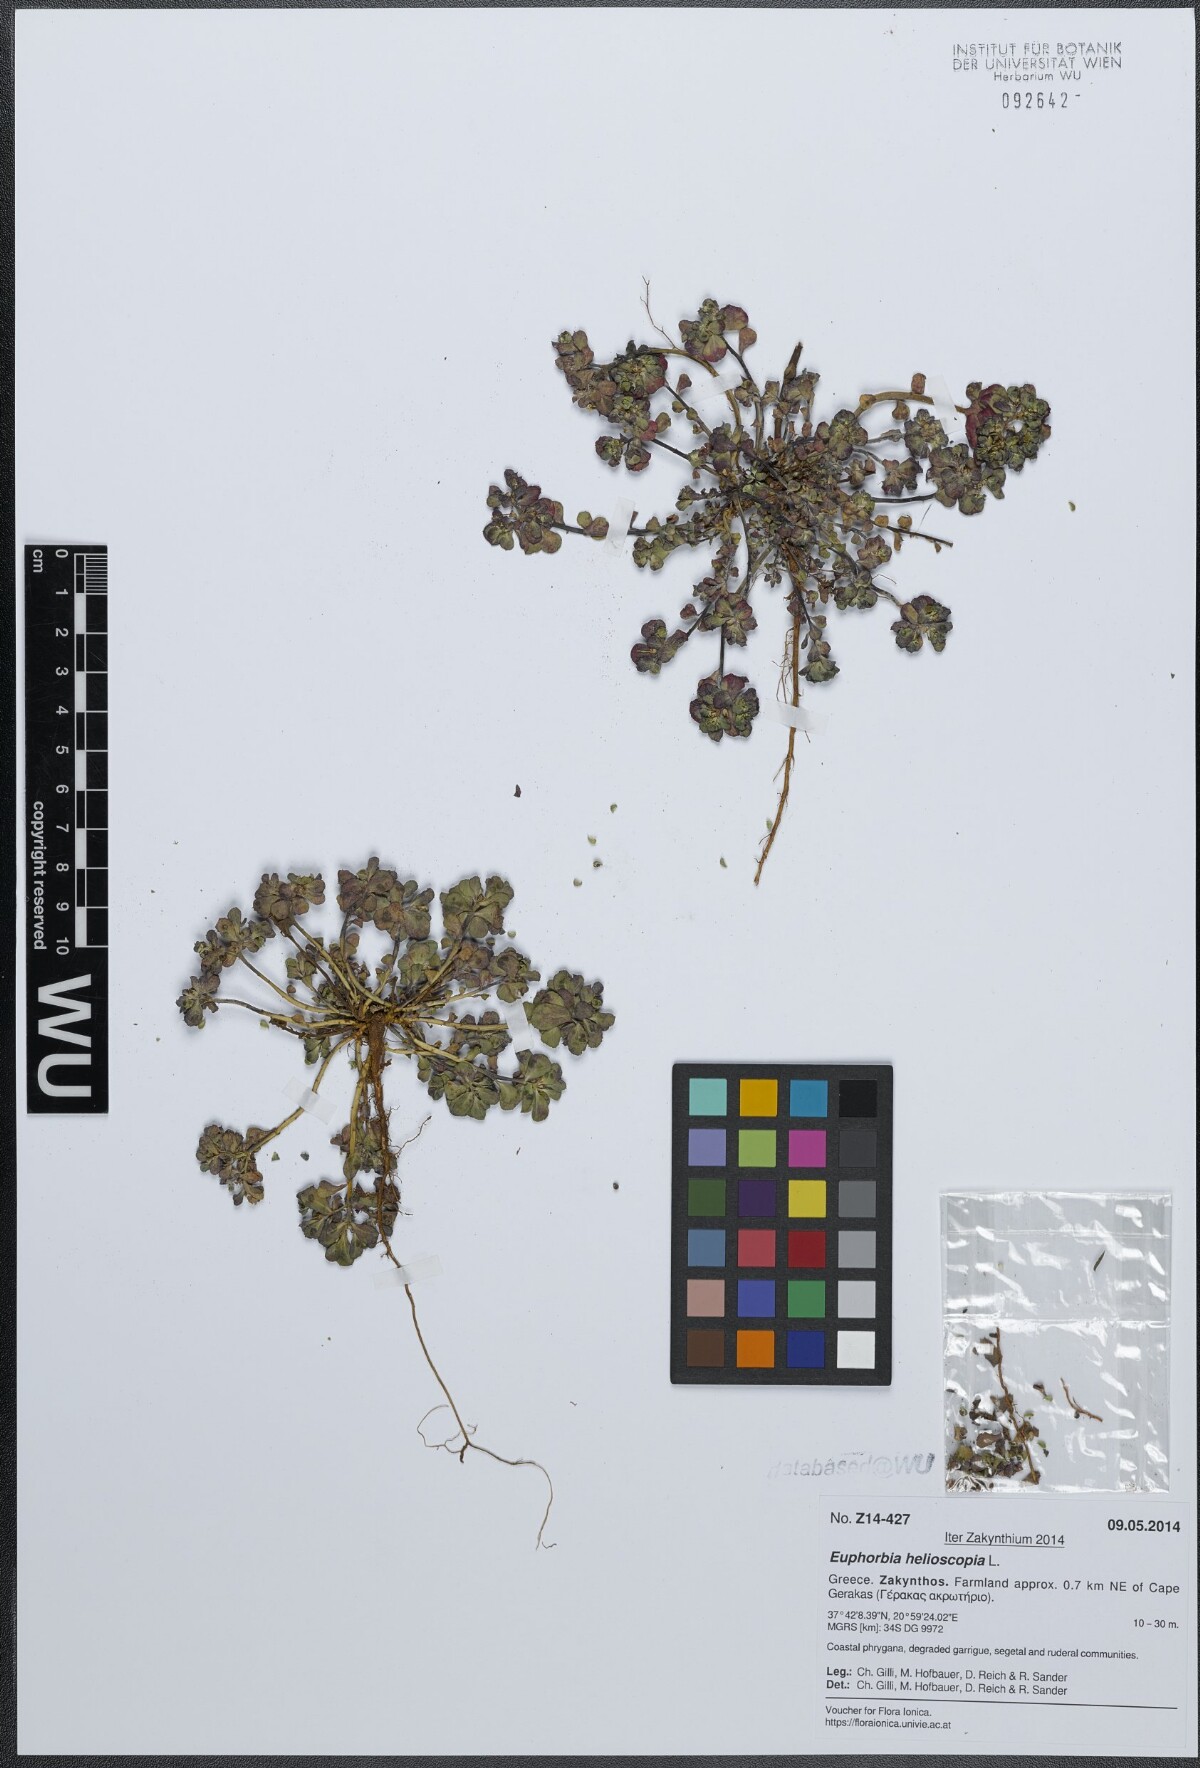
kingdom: Plantae
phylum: Tracheophyta
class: Magnoliopsida
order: Malpighiales
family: Euphorbiaceae
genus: Euphorbia
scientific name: Euphorbia helioscopia
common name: Sun spurge
